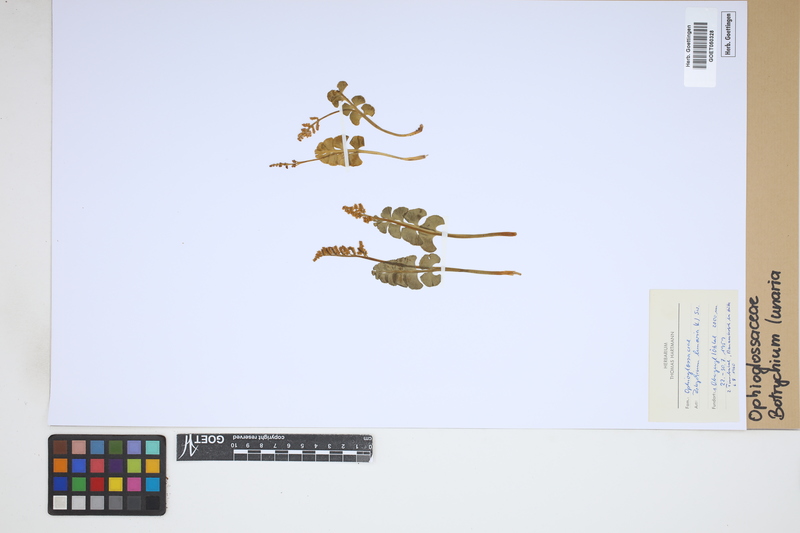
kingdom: Plantae
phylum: Tracheophyta
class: Polypodiopsida
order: Ophioglossales
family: Ophioglossaceae
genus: Botrychium
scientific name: Botrychium lunaria
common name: Moonwort
